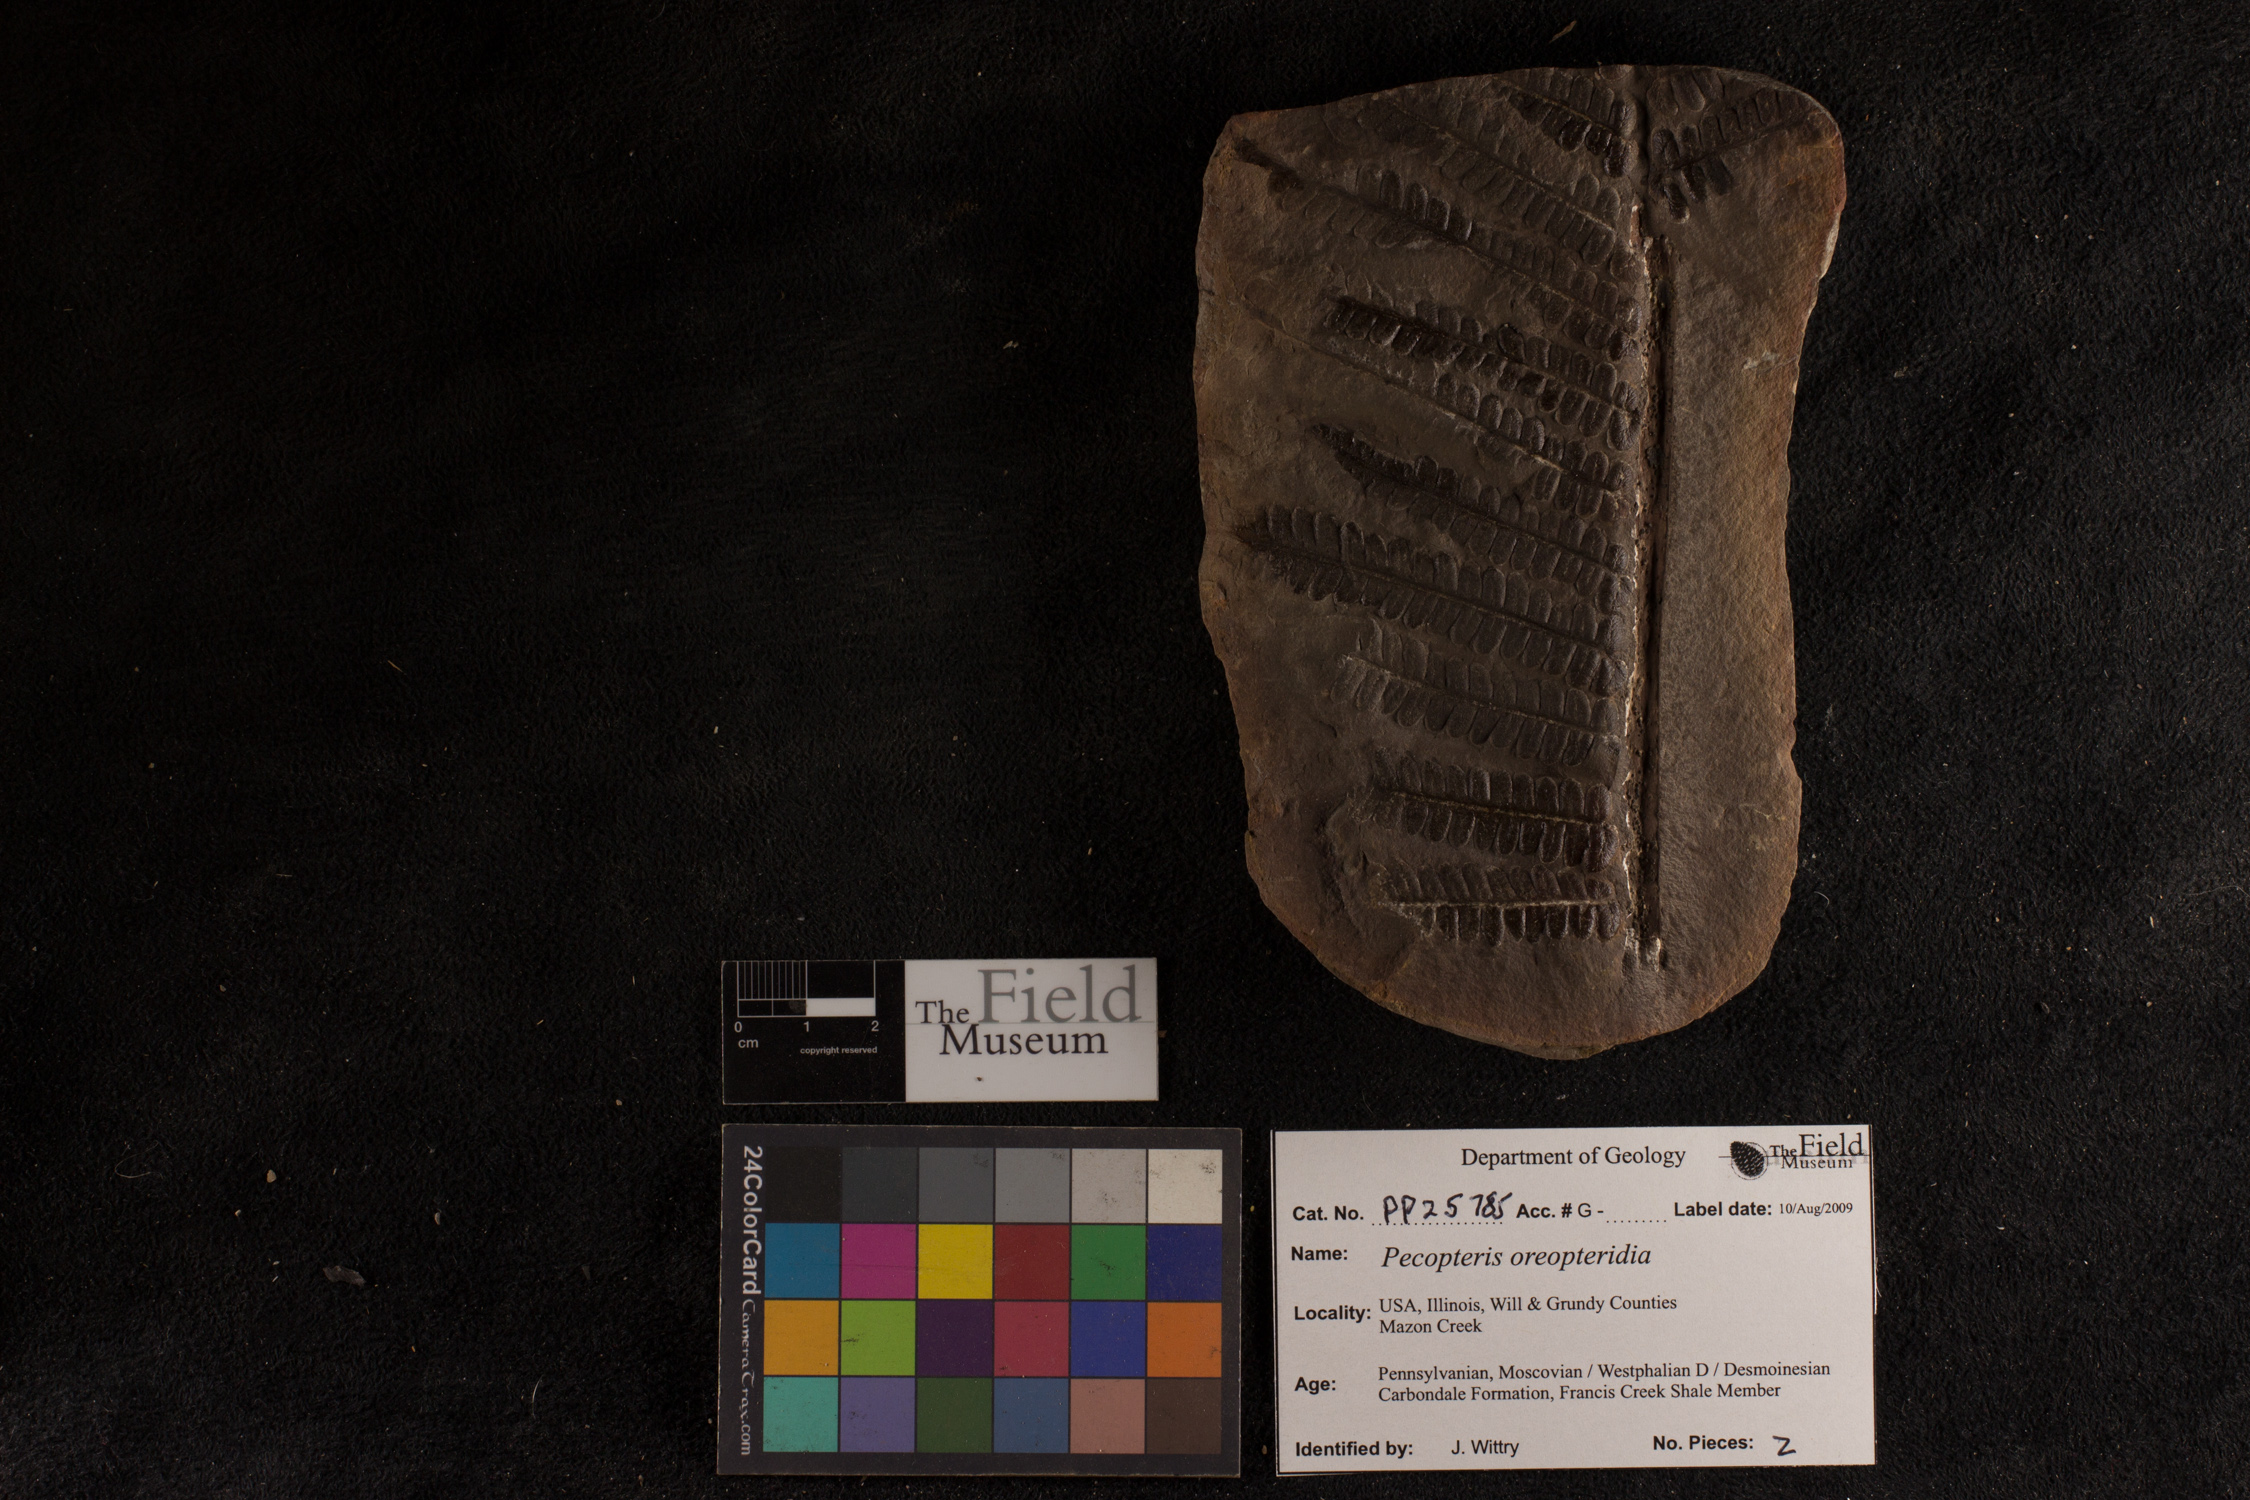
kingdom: Plantae
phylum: Tracheophyta
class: Polypodiopsida
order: Marattiales
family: Asterothecaceae
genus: Pecopteris
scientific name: Pecopteris
